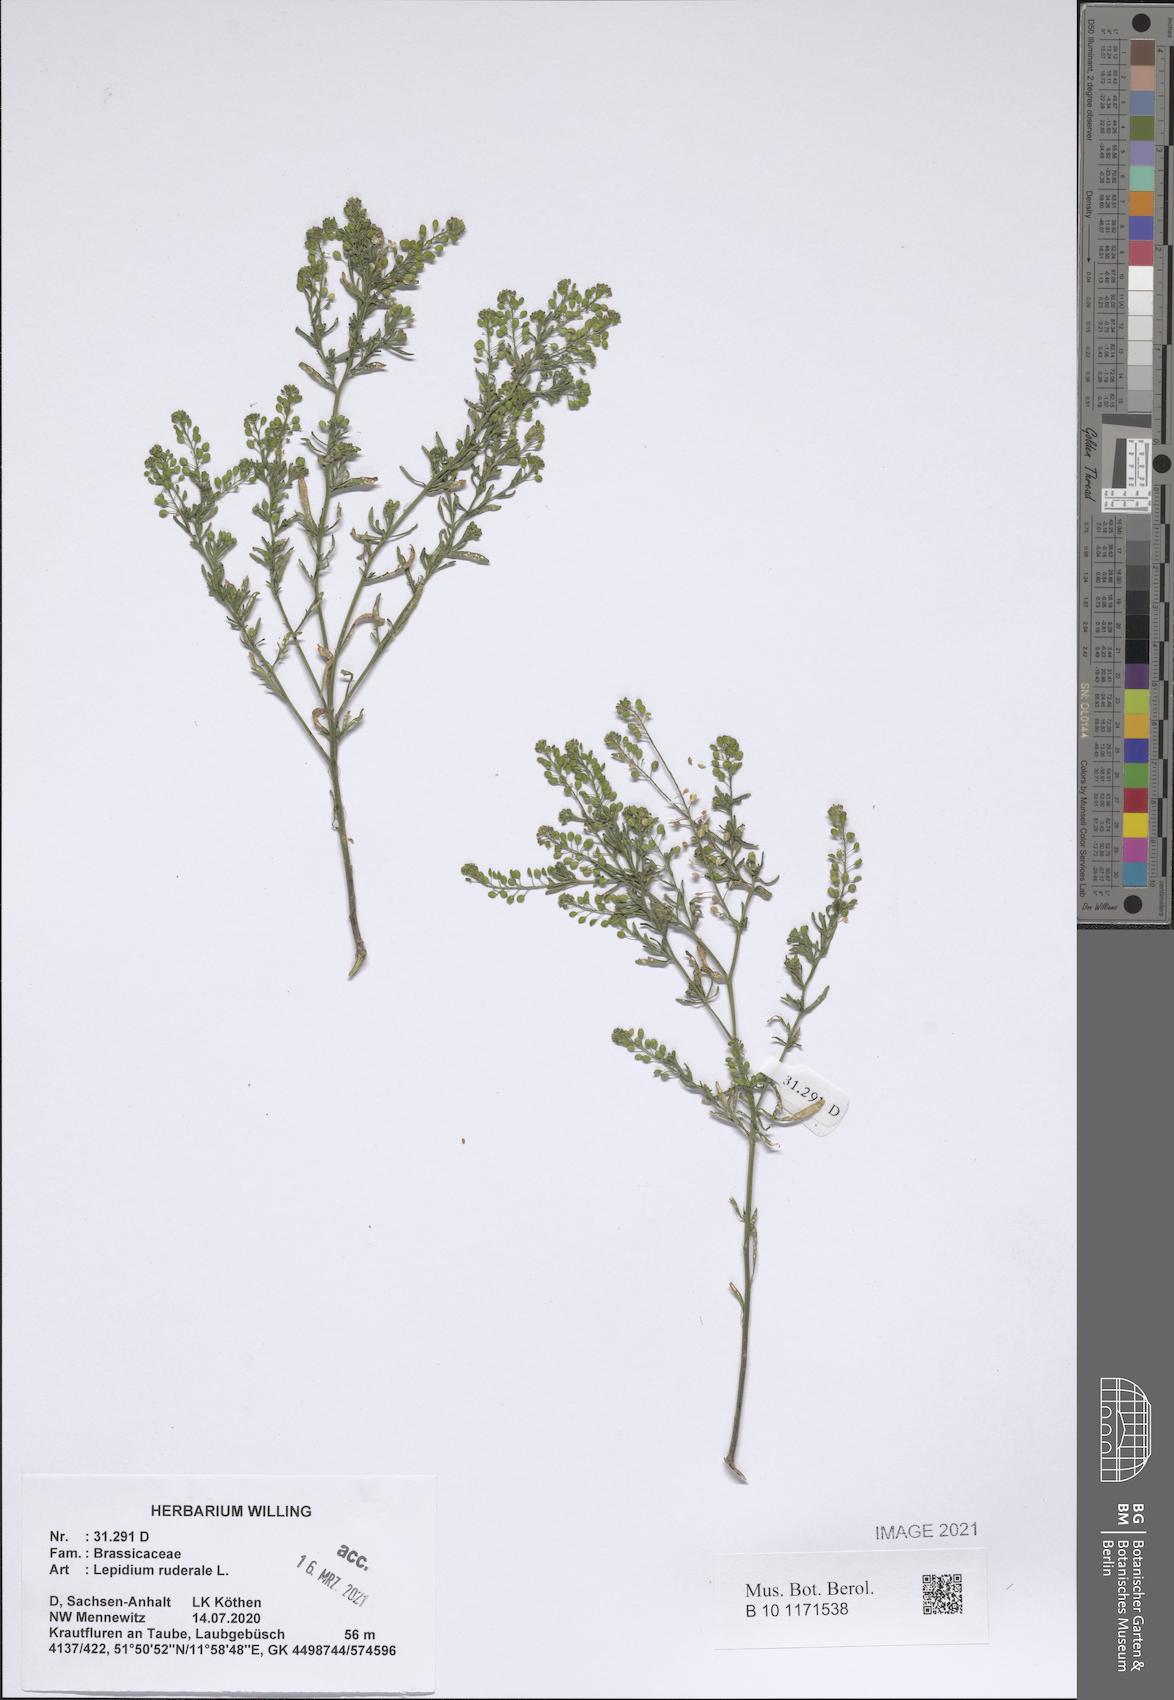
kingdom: Plantae
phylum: Tracheophyta
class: Magnoliopsida
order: Brassicales
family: Brassicaceae
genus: Lepidium
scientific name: Lepidium ruderale
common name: Narrow-leaved pepperwort
